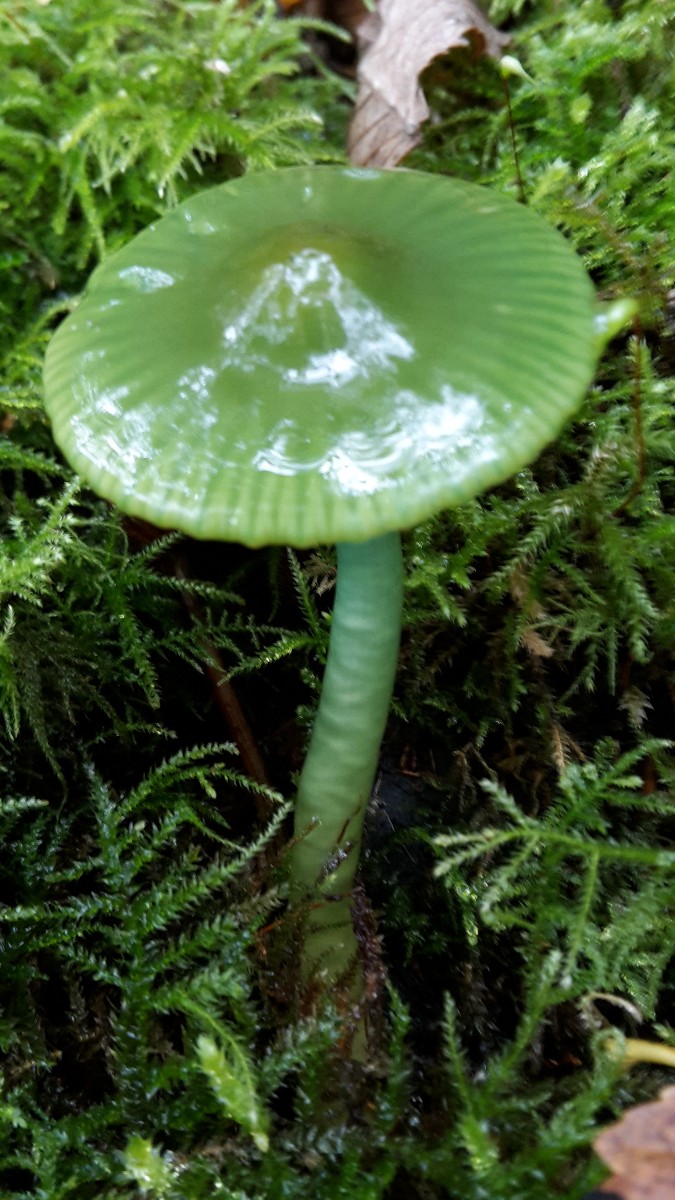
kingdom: Fungi
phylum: Basidiomycota
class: Agaricomycetes
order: Agaricales
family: Hygrophoraceae
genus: Gliophorus
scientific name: Gliophorus psittacinus
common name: papegøje-vokshat
